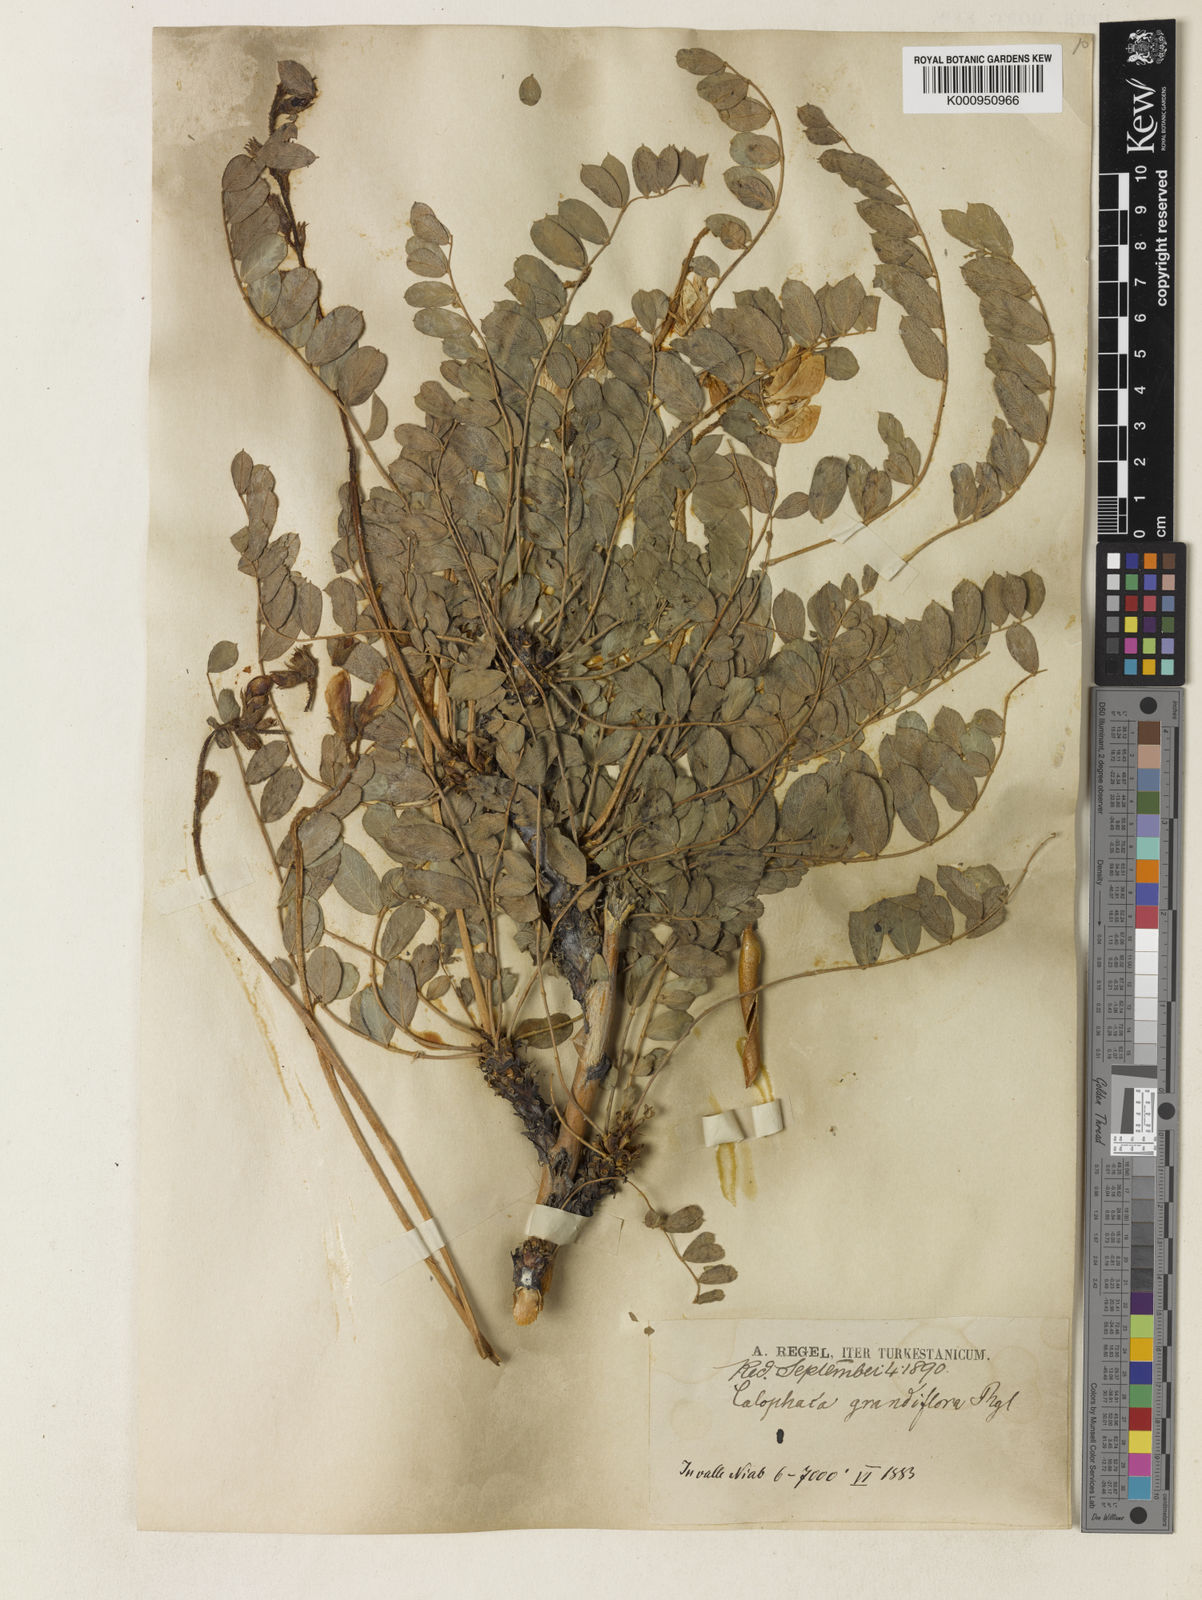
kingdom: Plantae
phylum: Tracheophyta
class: Magnoliopsida
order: Fabales
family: Fabaceae
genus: Calophaca
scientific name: Calophaca grandiflora
